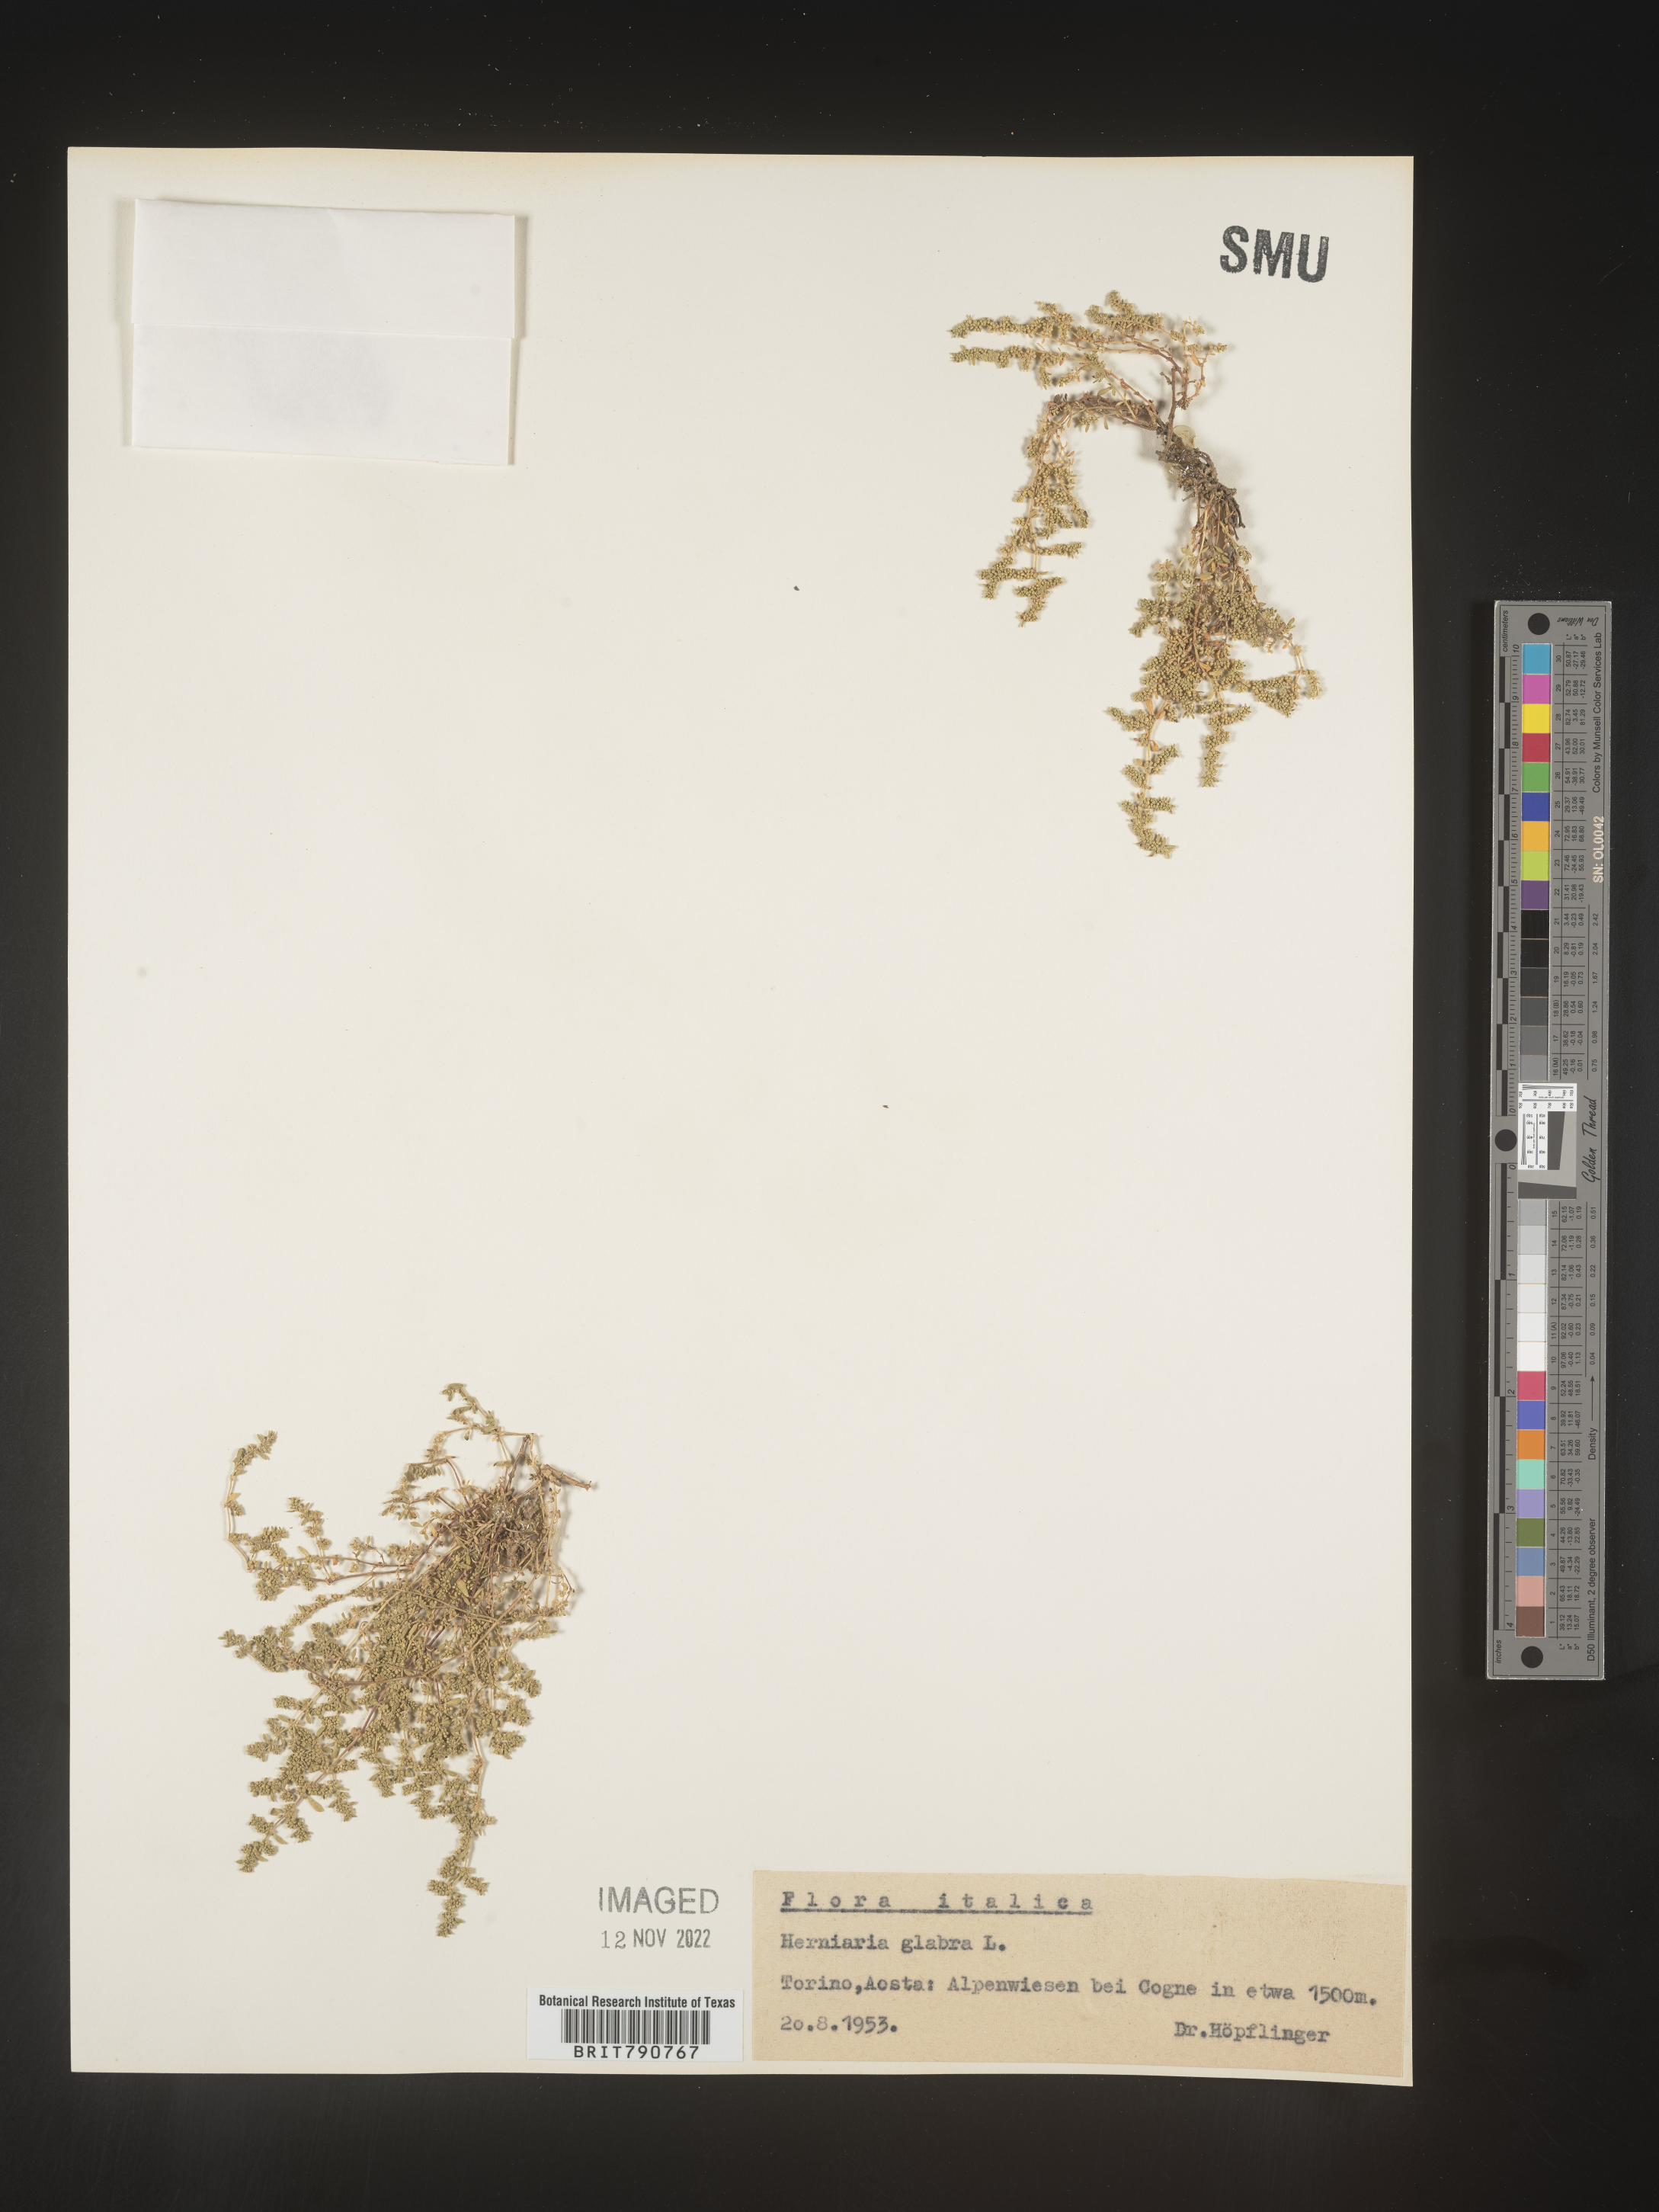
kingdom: Plantae
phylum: Tracheophyta
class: Magnoliopsida
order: Caryophyllales
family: Caryophyllaceae
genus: Herniaria
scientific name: Herniaria
